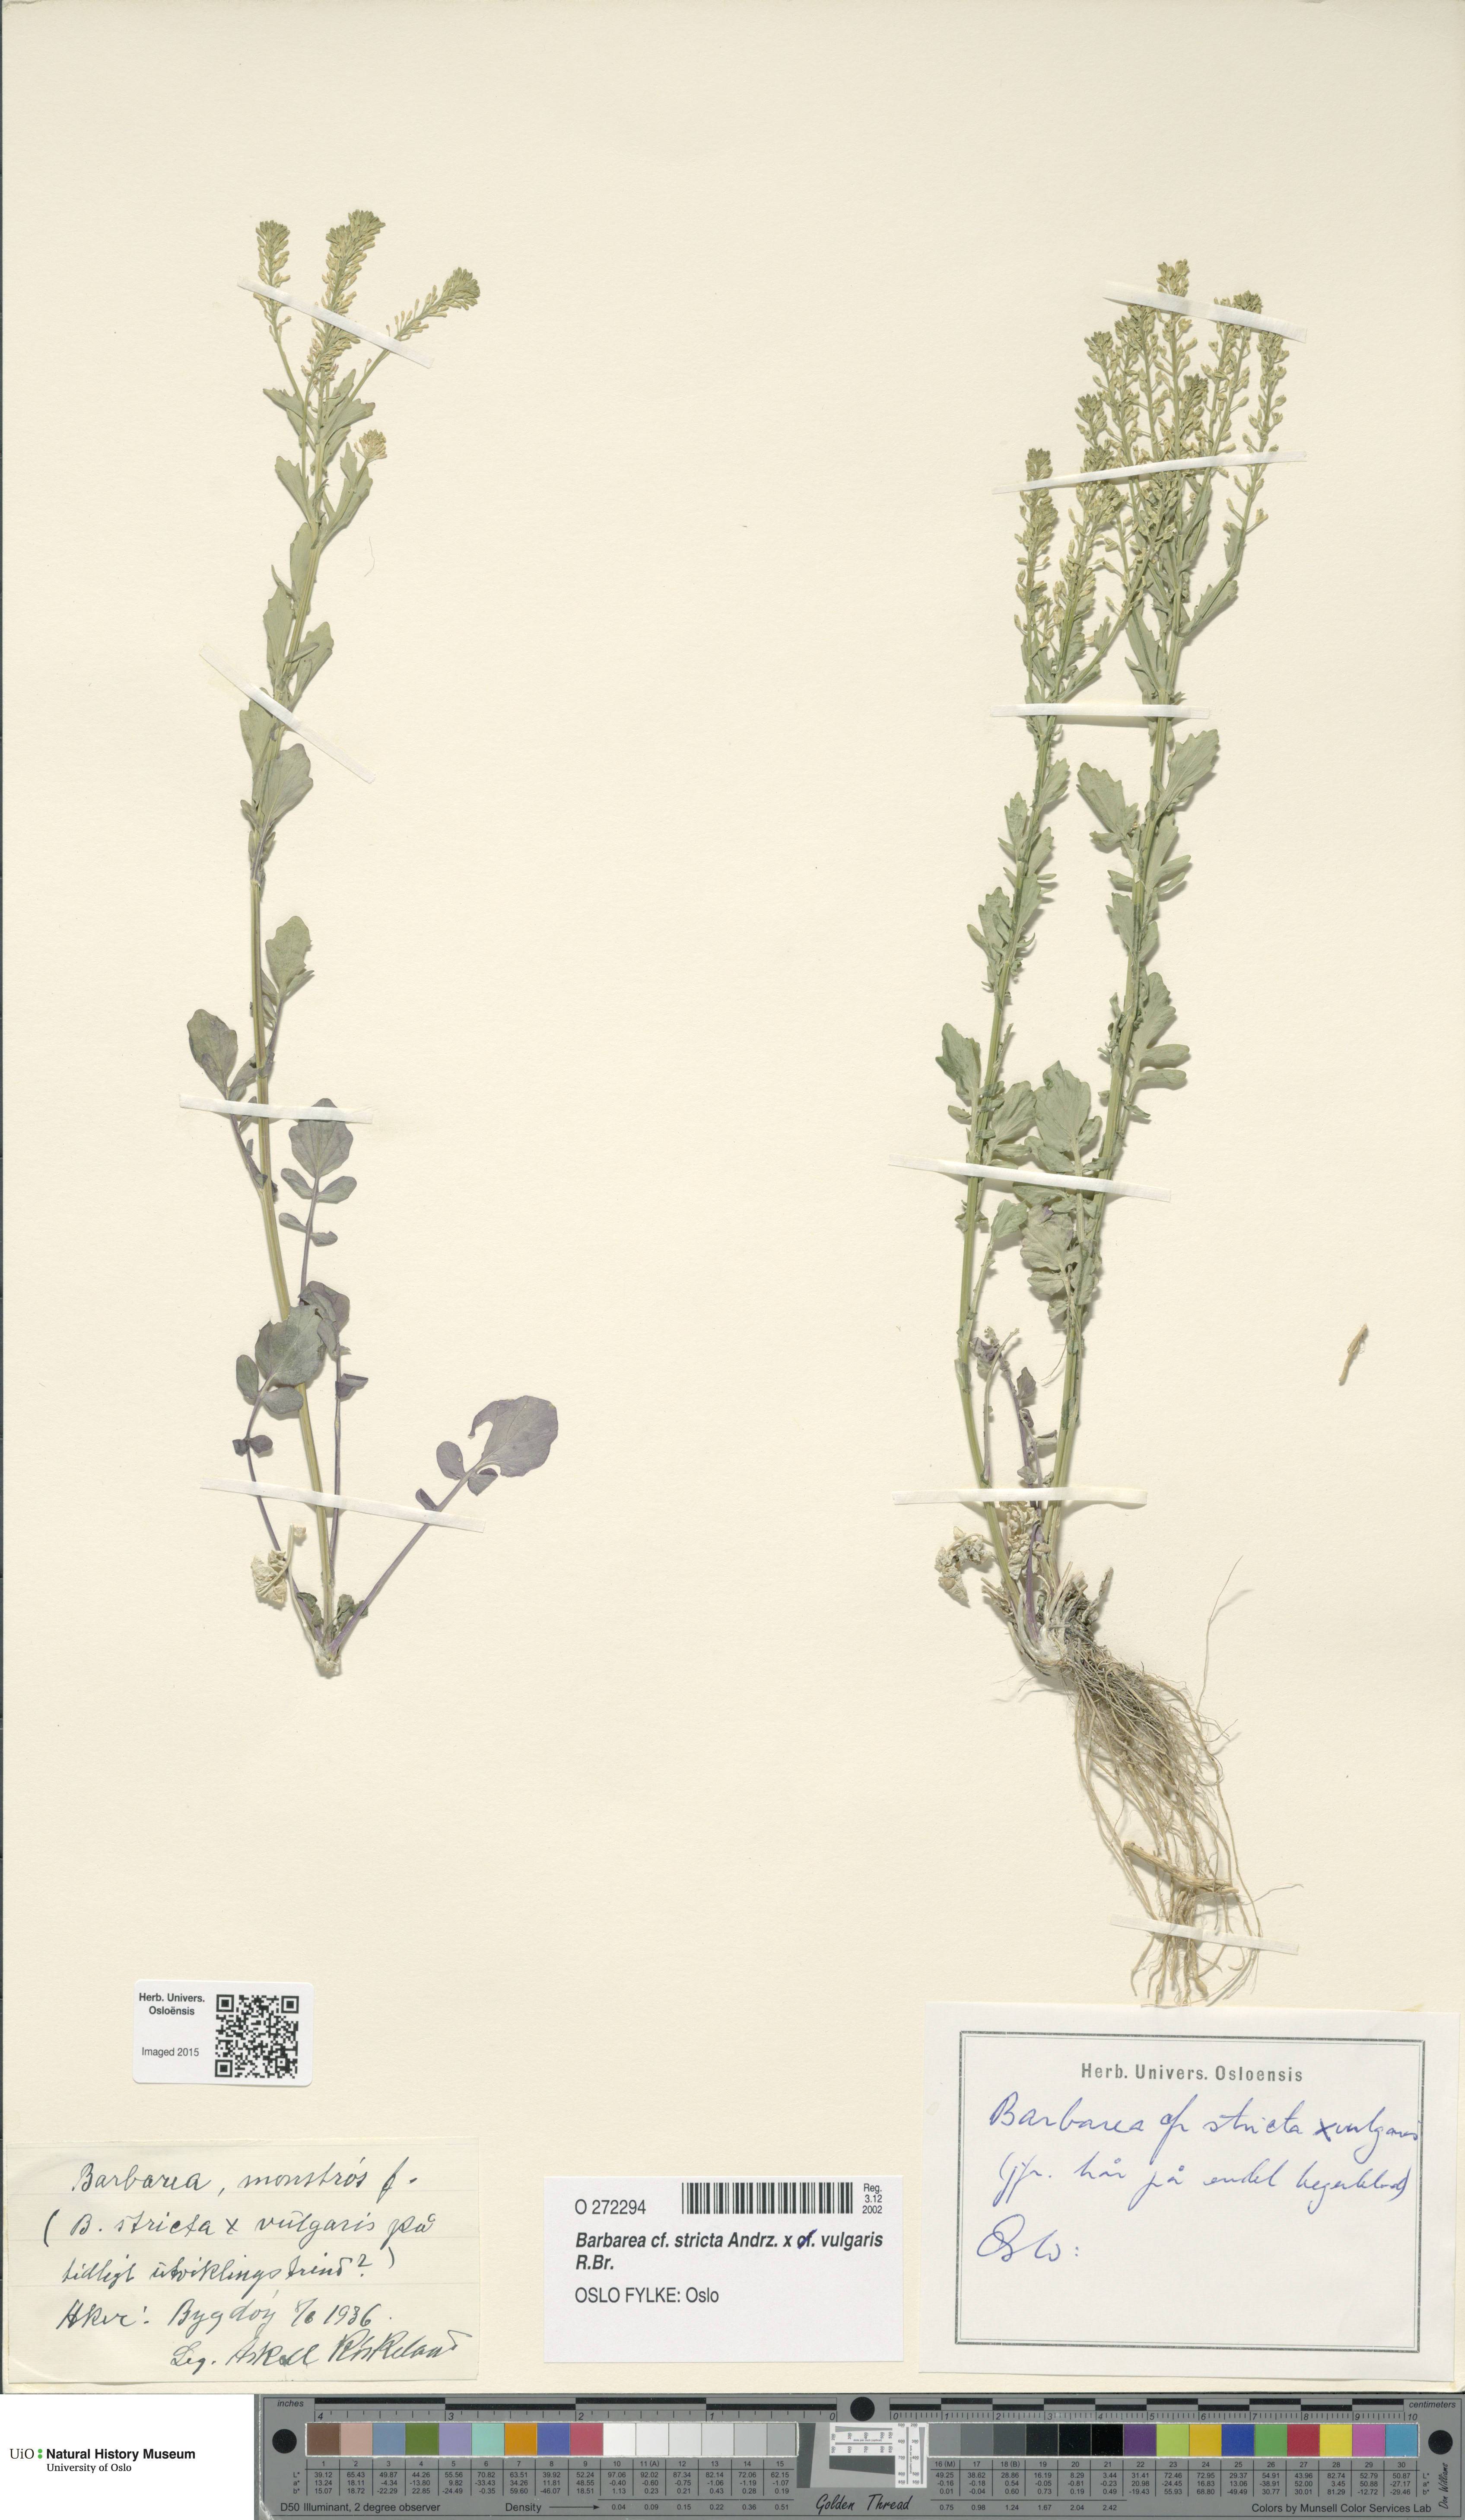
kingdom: Plantae
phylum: Tracheophyta
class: Magnoliopsida
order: Brassicales
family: Brassicaceae
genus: Barbarea
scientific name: Barbarea
